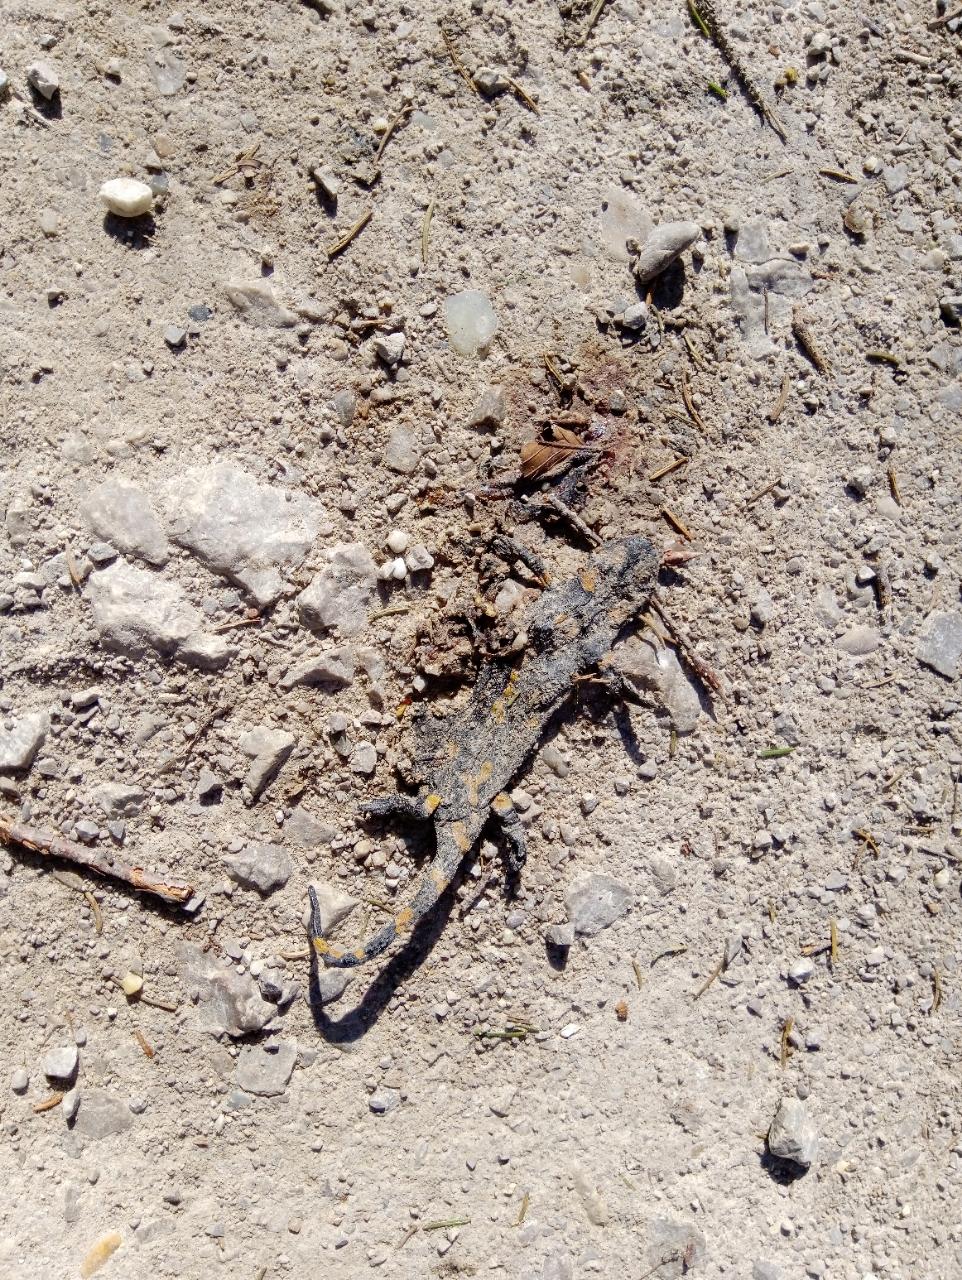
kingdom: Animalia
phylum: Chordata
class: Amphibia
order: Caudata
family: Salamandridae
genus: Salamandra
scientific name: Salamandra salamandra
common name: Fire salamander
